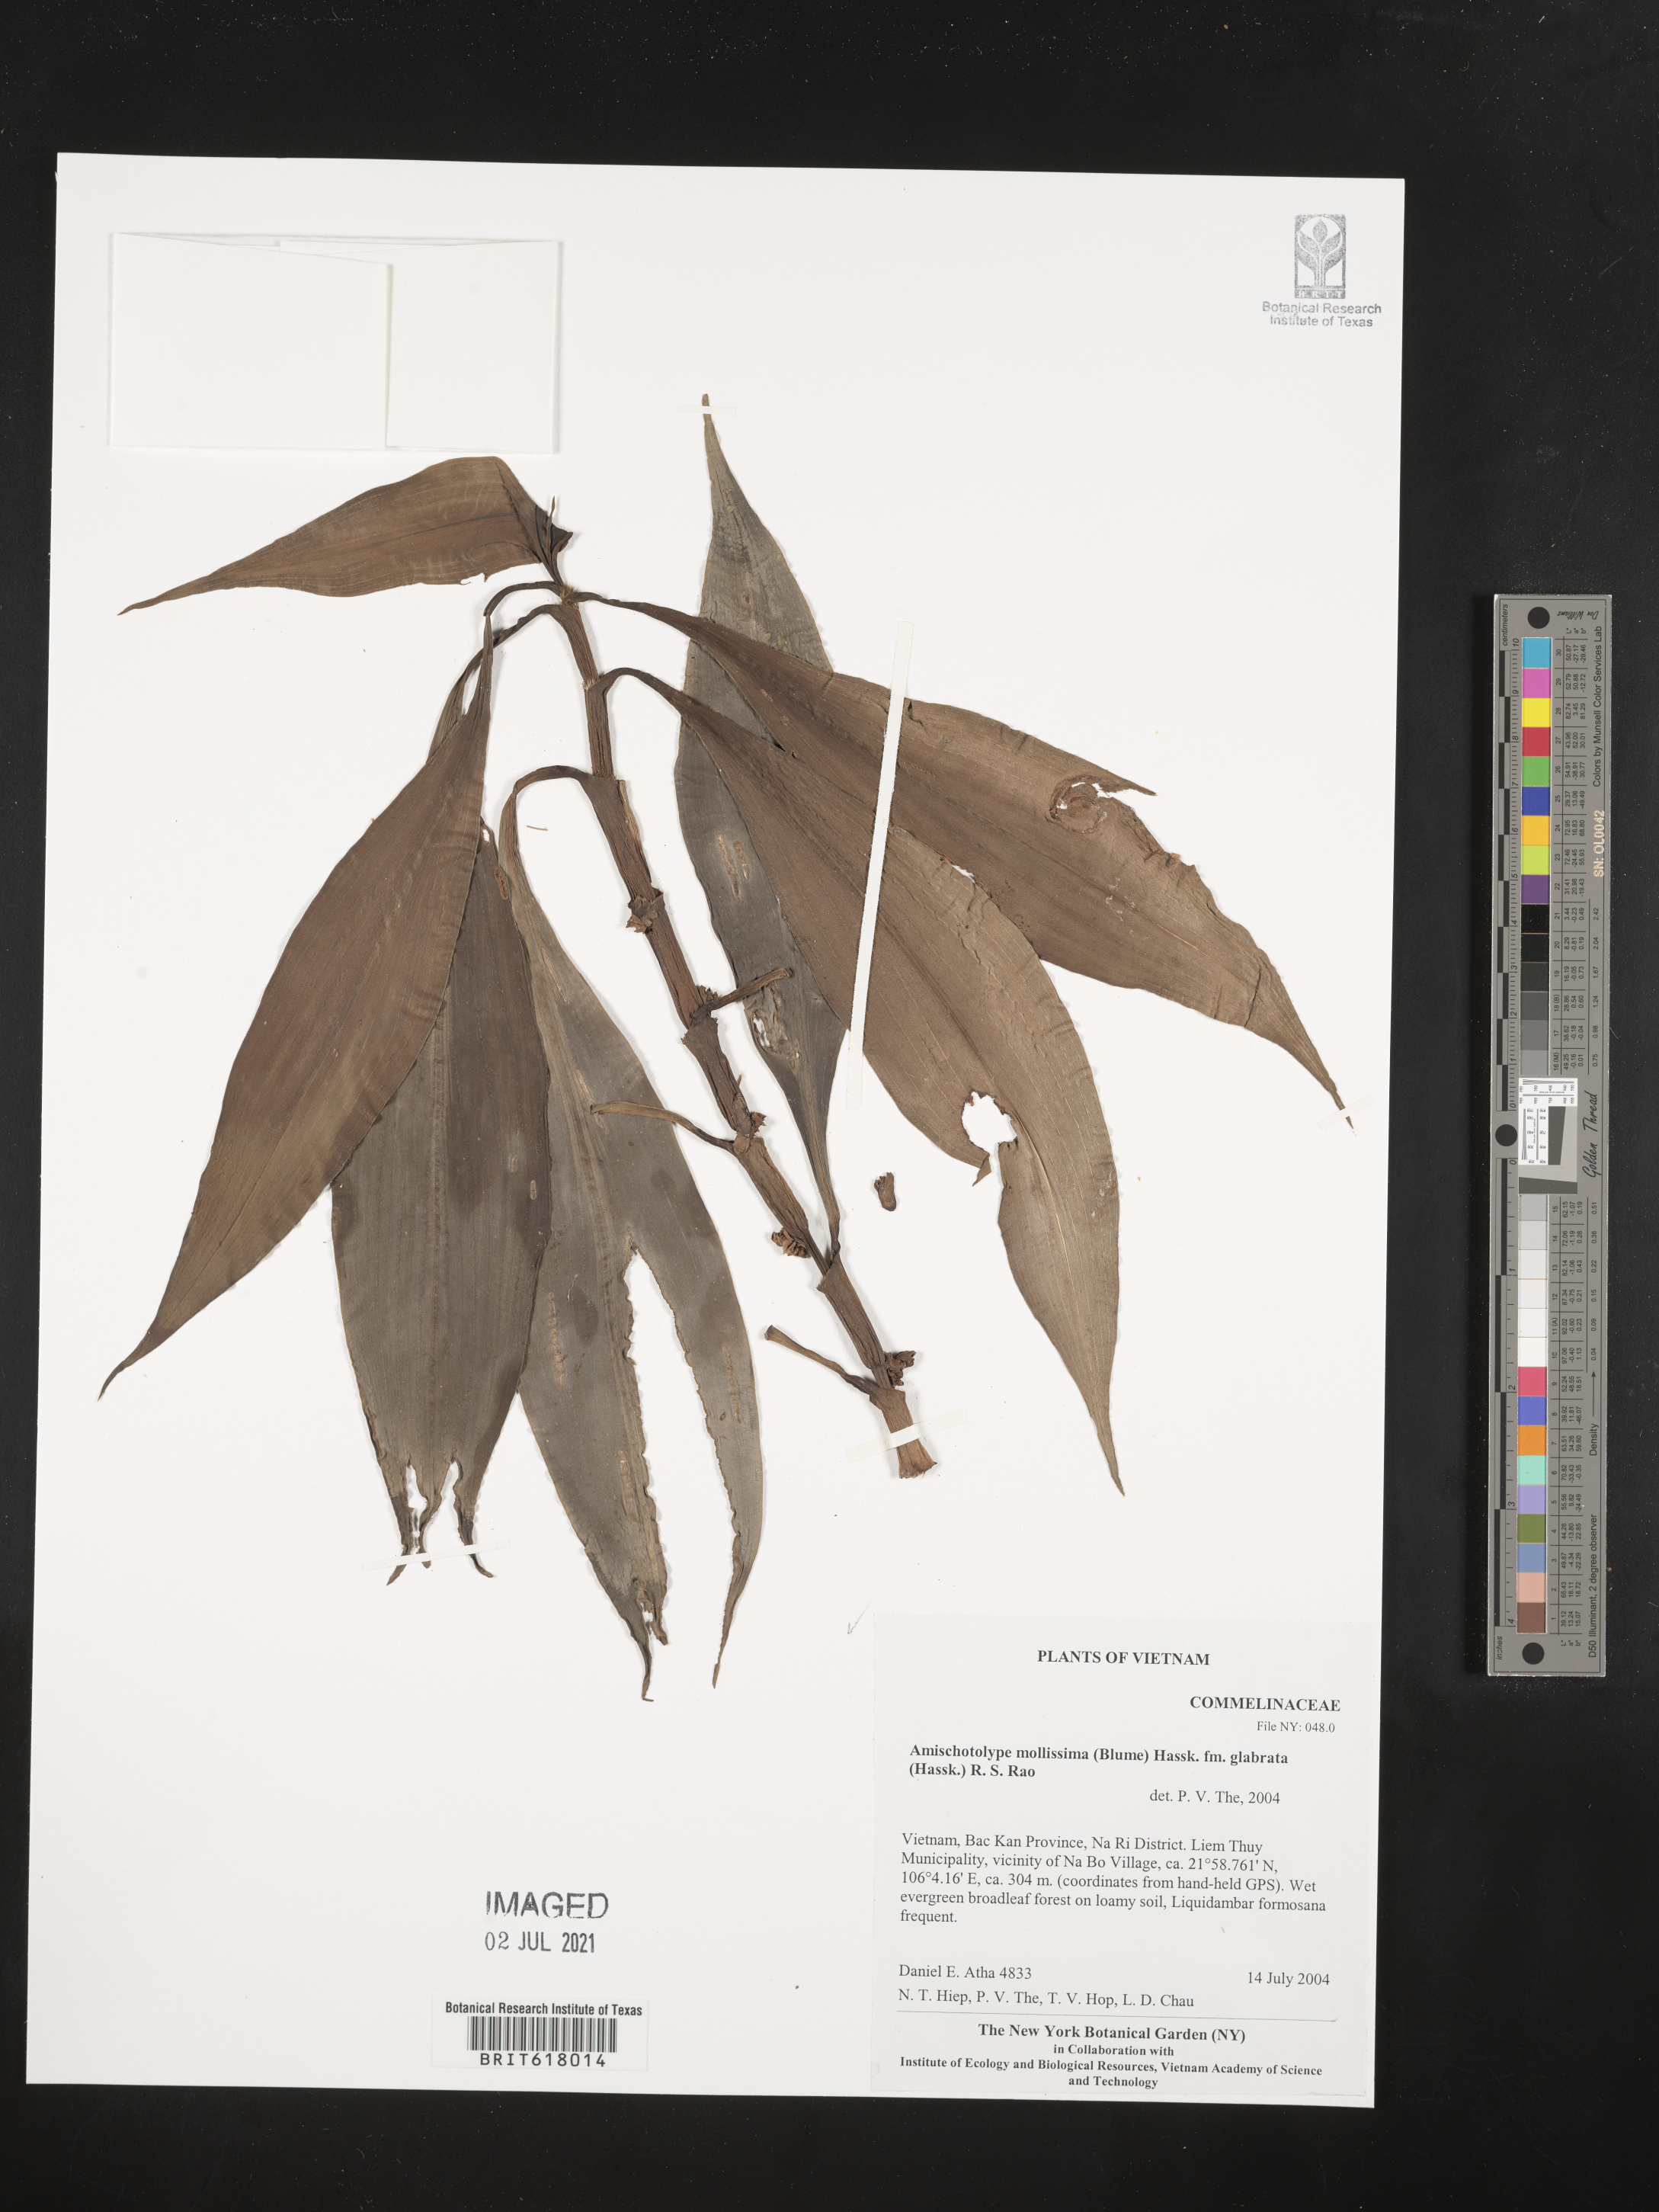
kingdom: Plantae
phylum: Tracheophyta
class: Liliopsida
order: Commelinales
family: Commelinaceae
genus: Amischotolype
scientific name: Amischotolype glabrata
